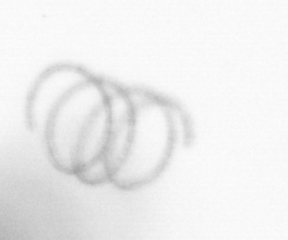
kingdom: Chromista
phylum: Ochrophyta
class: Bacillariophyceae
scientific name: Bacillariophyceae
